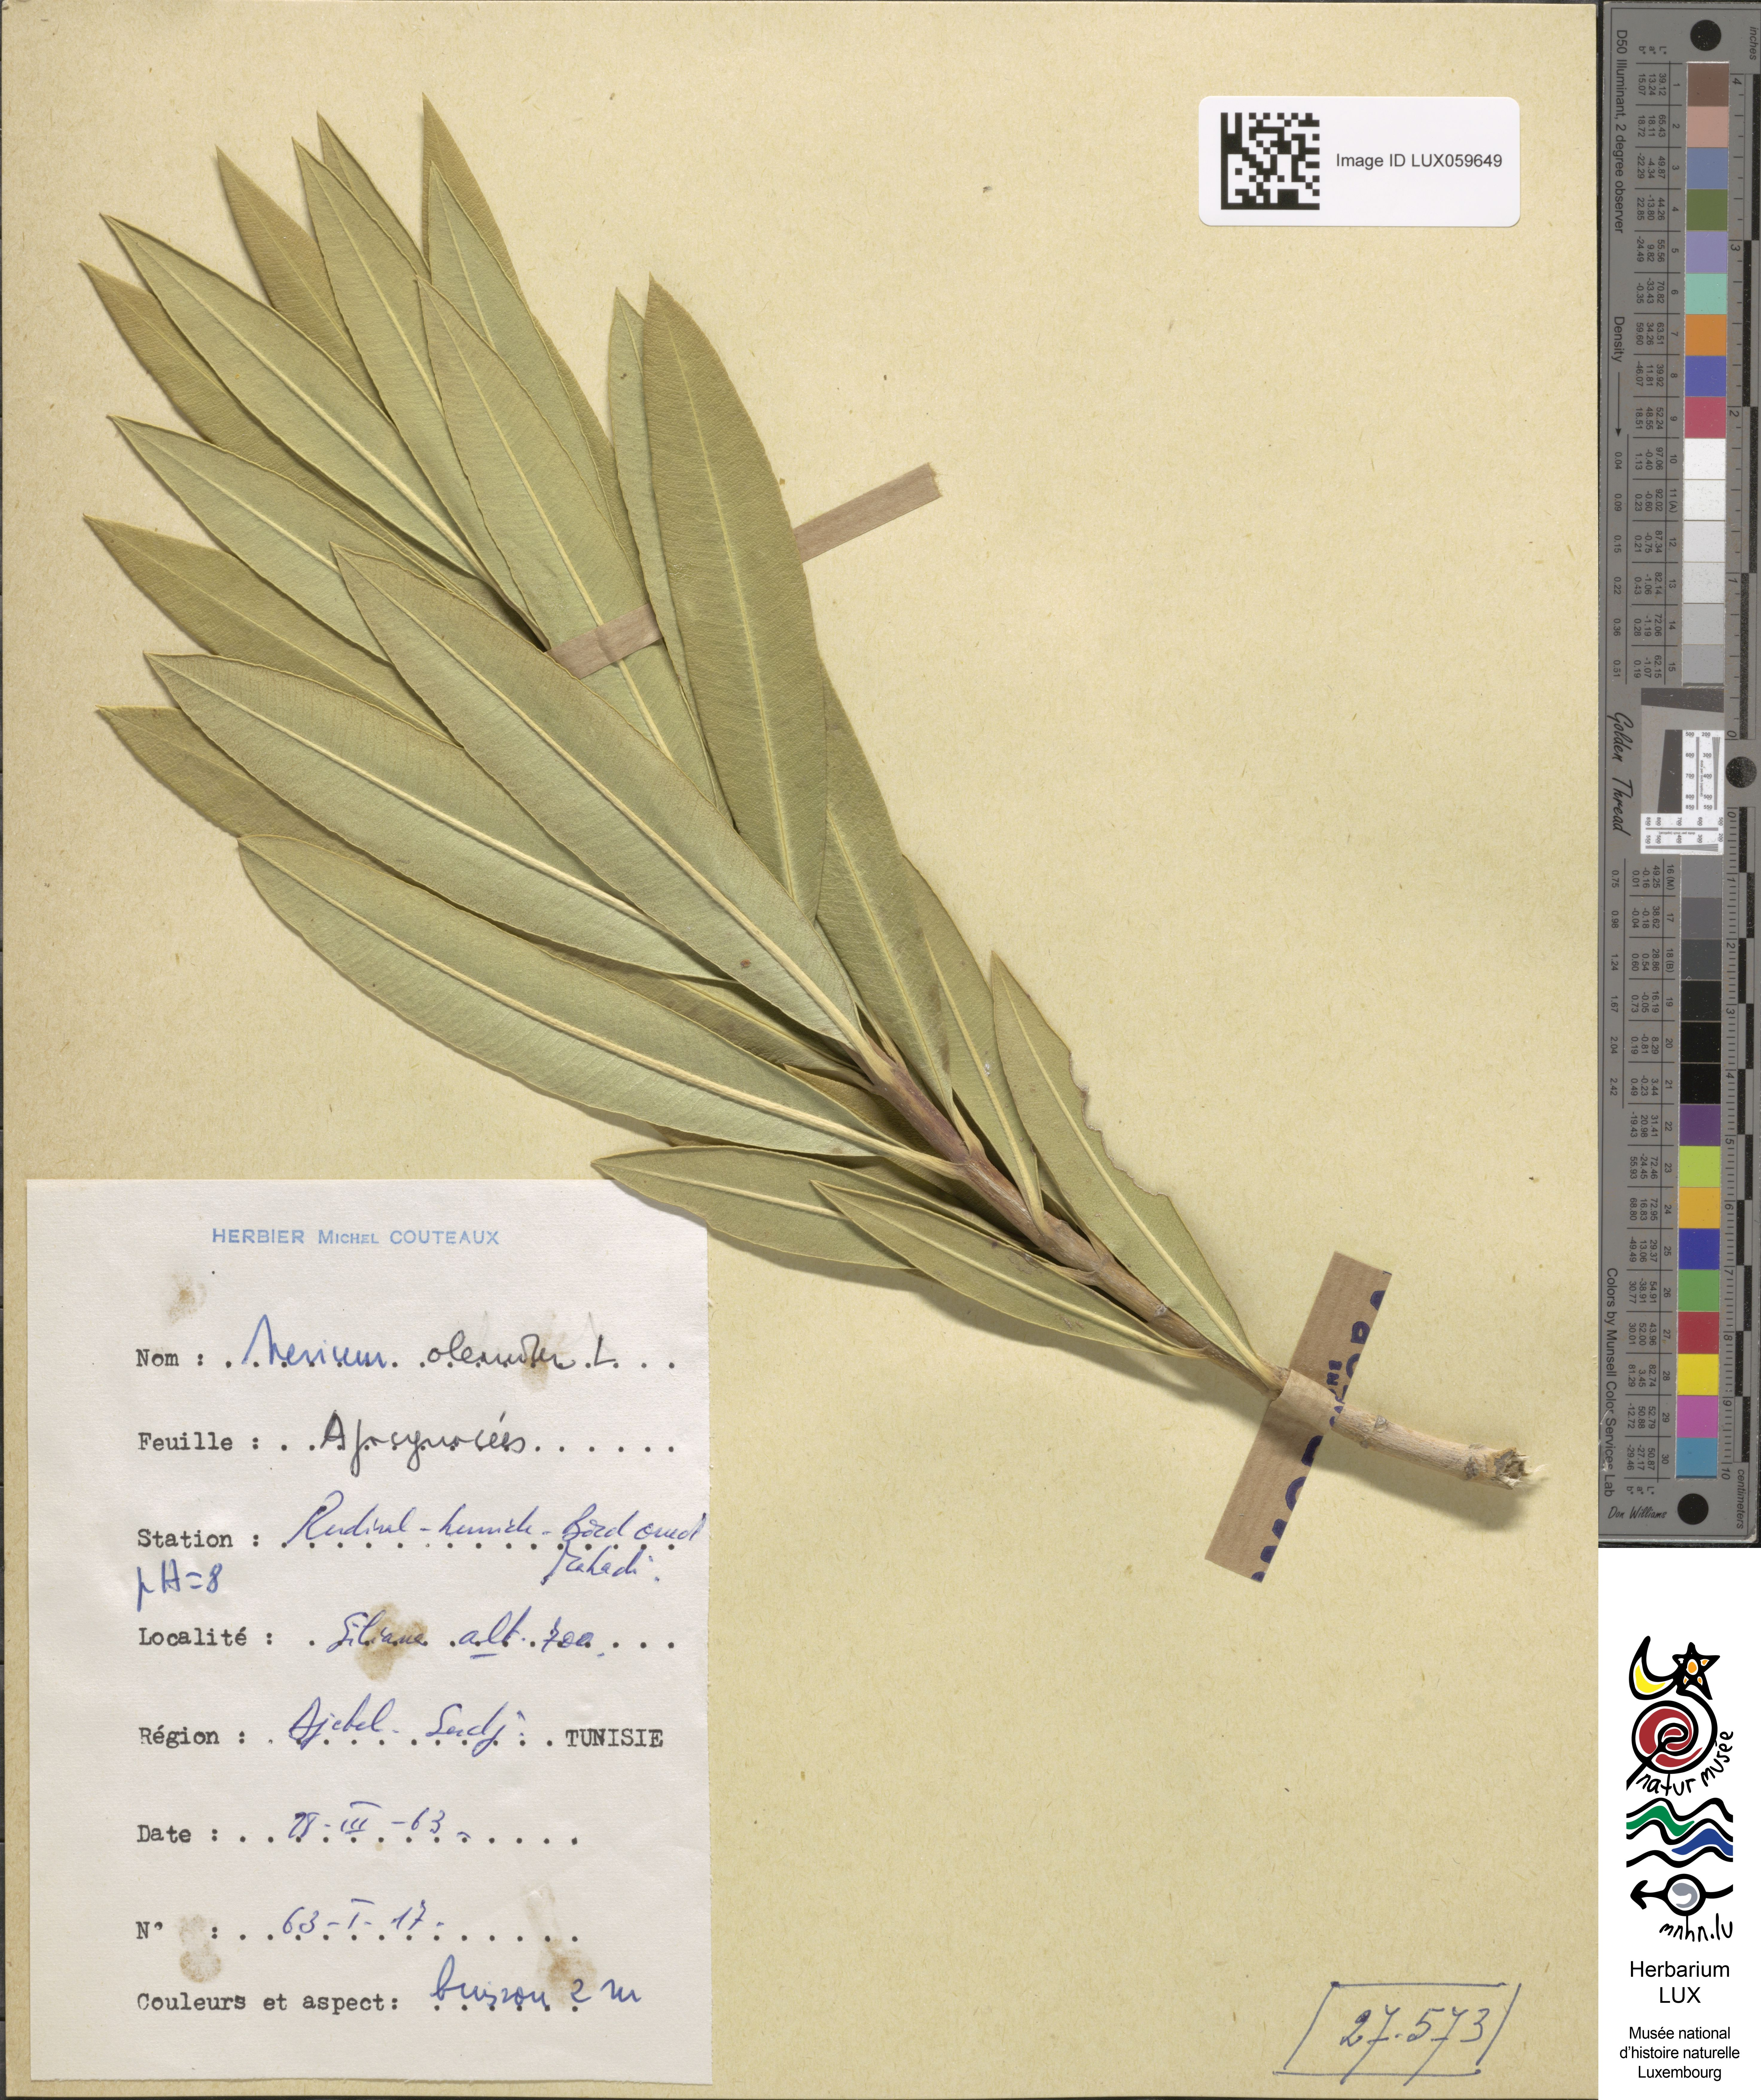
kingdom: Plantae
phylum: Tracheophyta
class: Magnoliopsida
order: Gentianales
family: Apocynaceae
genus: Nerium
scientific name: Nerium oleander
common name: Oleander
